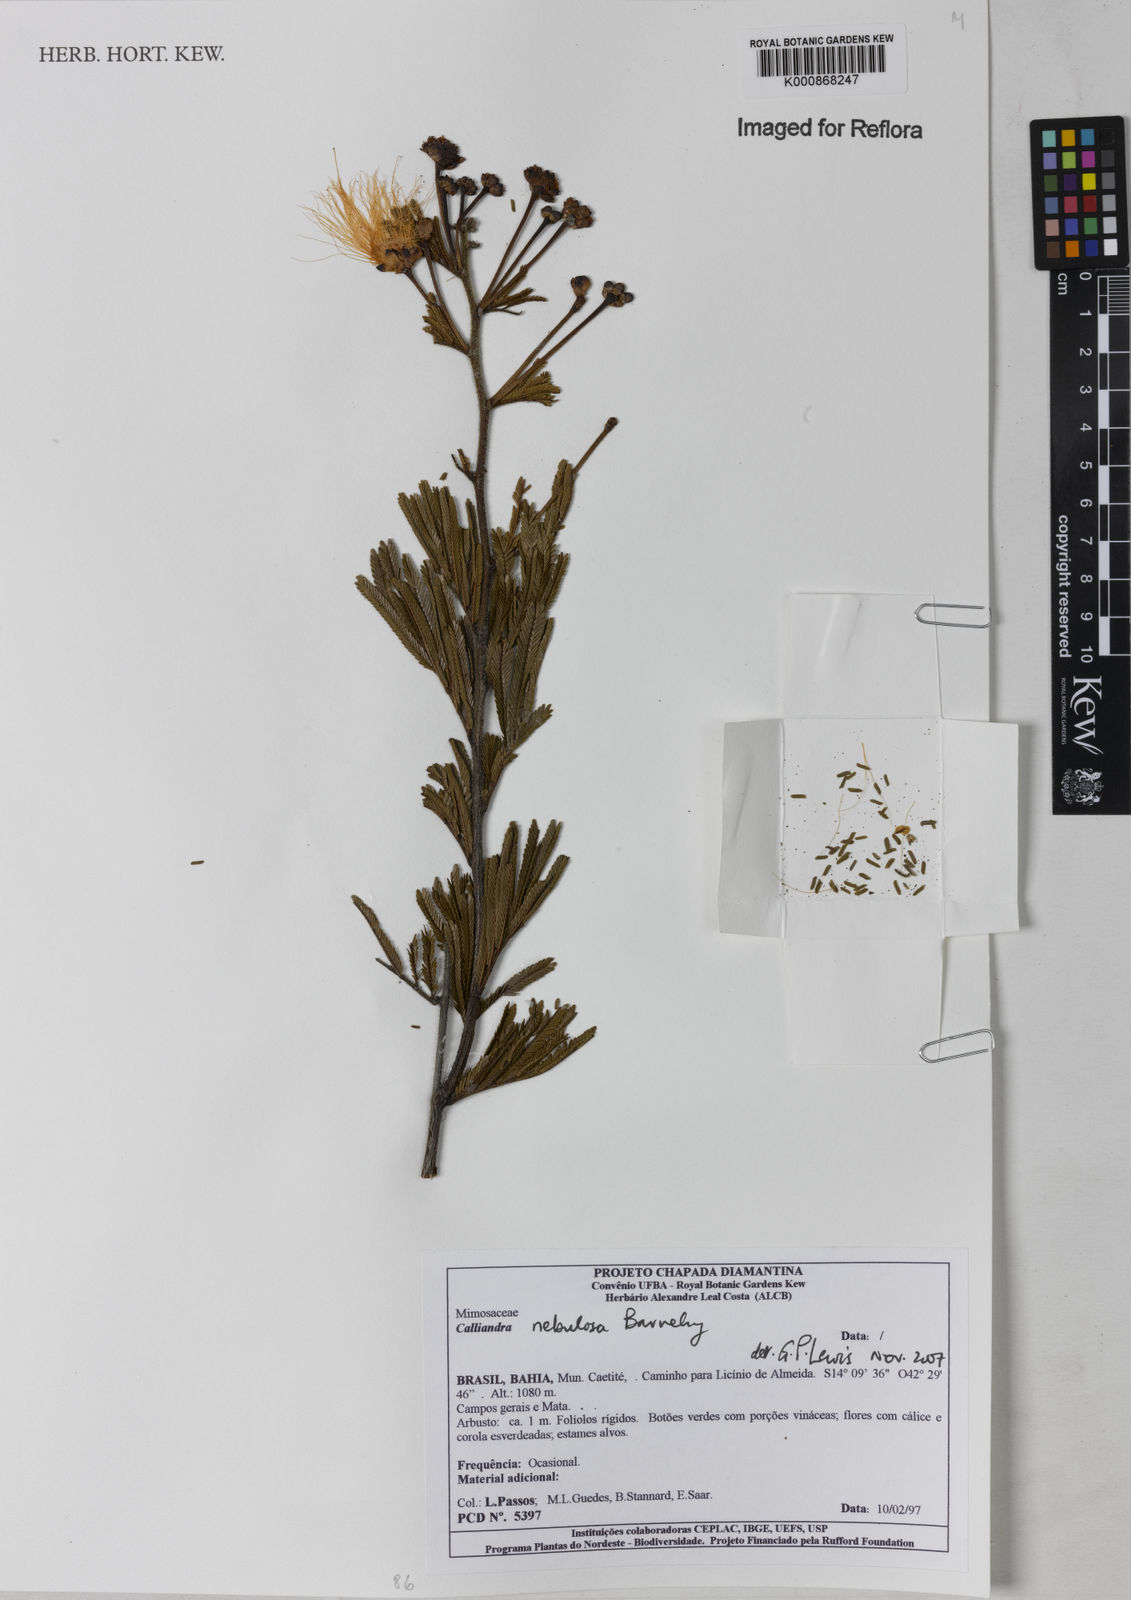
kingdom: Plantae
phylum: Tracheophyta
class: Magnoliopsida
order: Fabales
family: Fabaceae
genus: Calliandra
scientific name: Calliandra nebulosa
